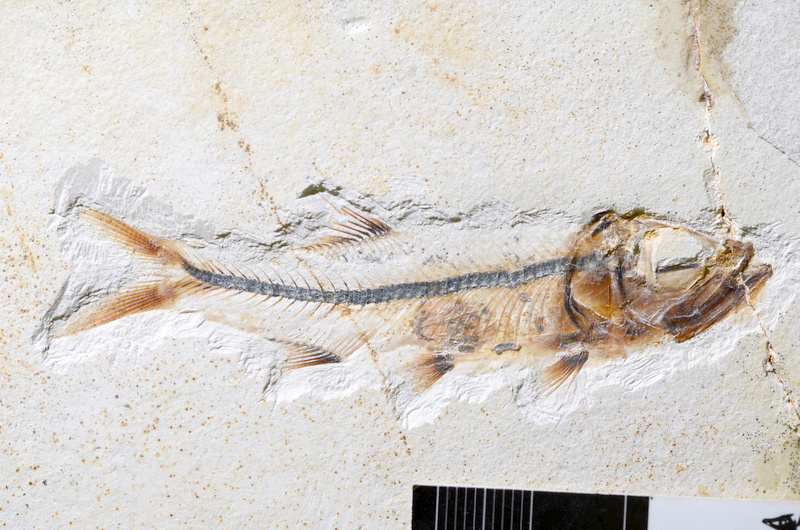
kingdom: Animalia
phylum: Chordata
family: Ascalaboidae
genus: Ebertichthys
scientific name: Ebertichthys ettlingensis
